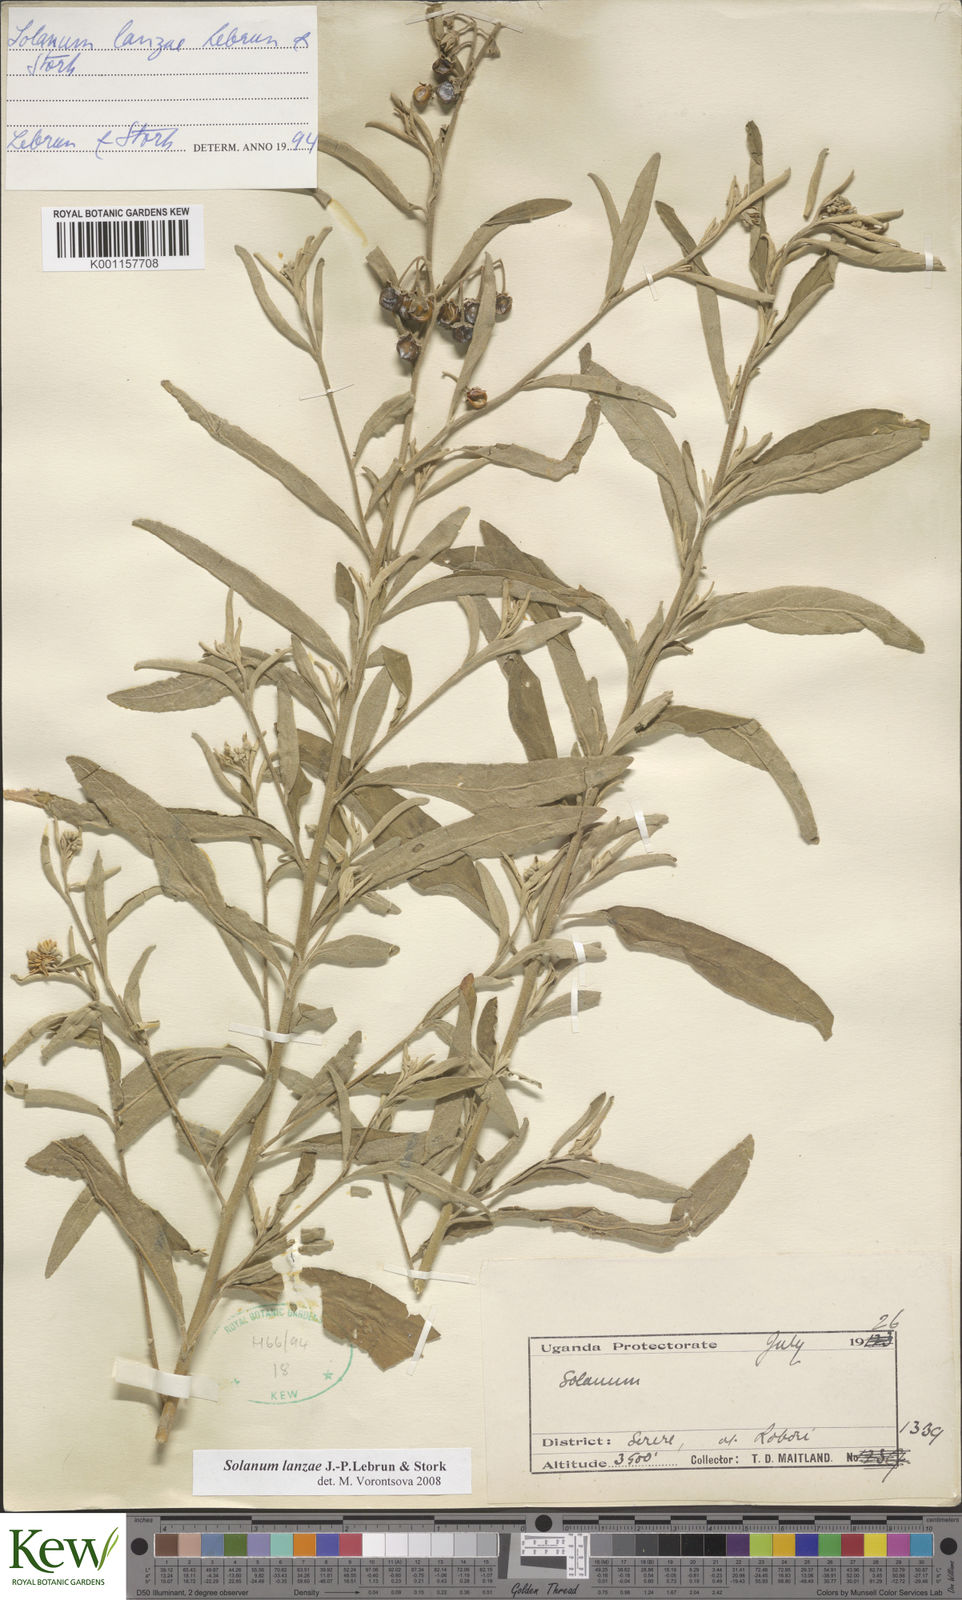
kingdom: Plantae
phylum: Tracheophyta
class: Magnoliopsida
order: Solanales
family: Solanaceae
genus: Solanum
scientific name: Solanum lanzae
